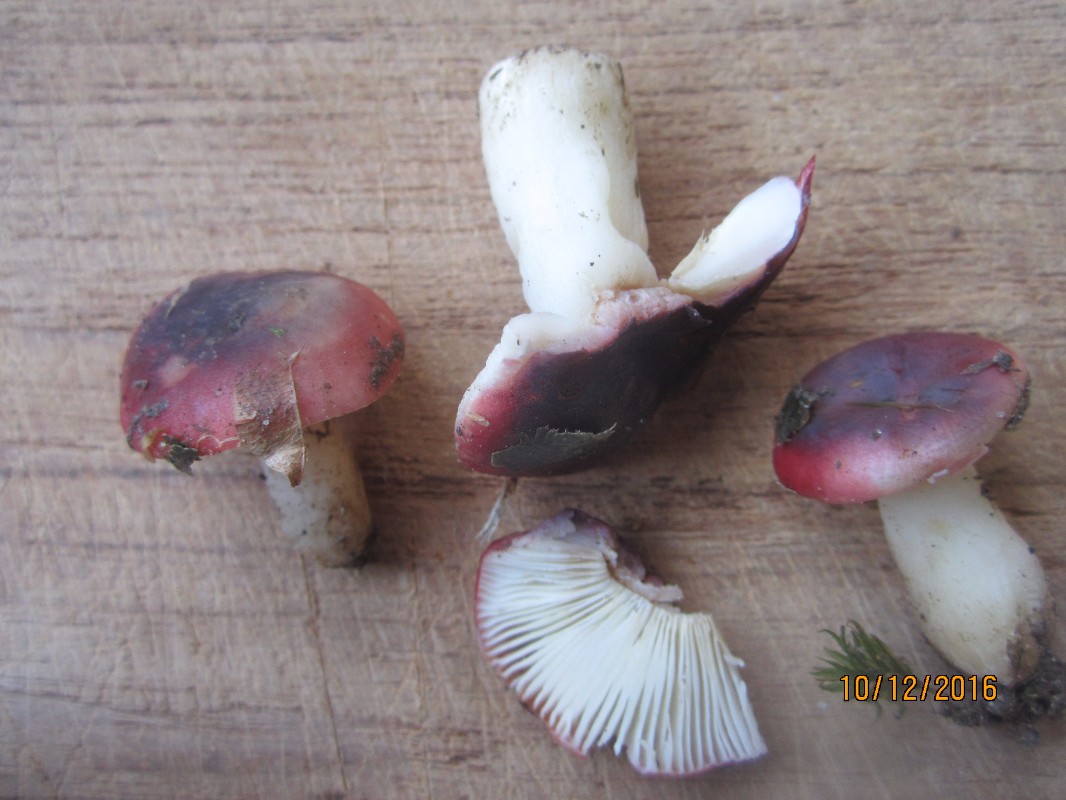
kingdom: Fungi
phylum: Basidiomycota
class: Agaricomycetes
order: Russulales
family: Russulaceae
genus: Russula
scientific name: Russula atrorubens
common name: sortrød skørhat
